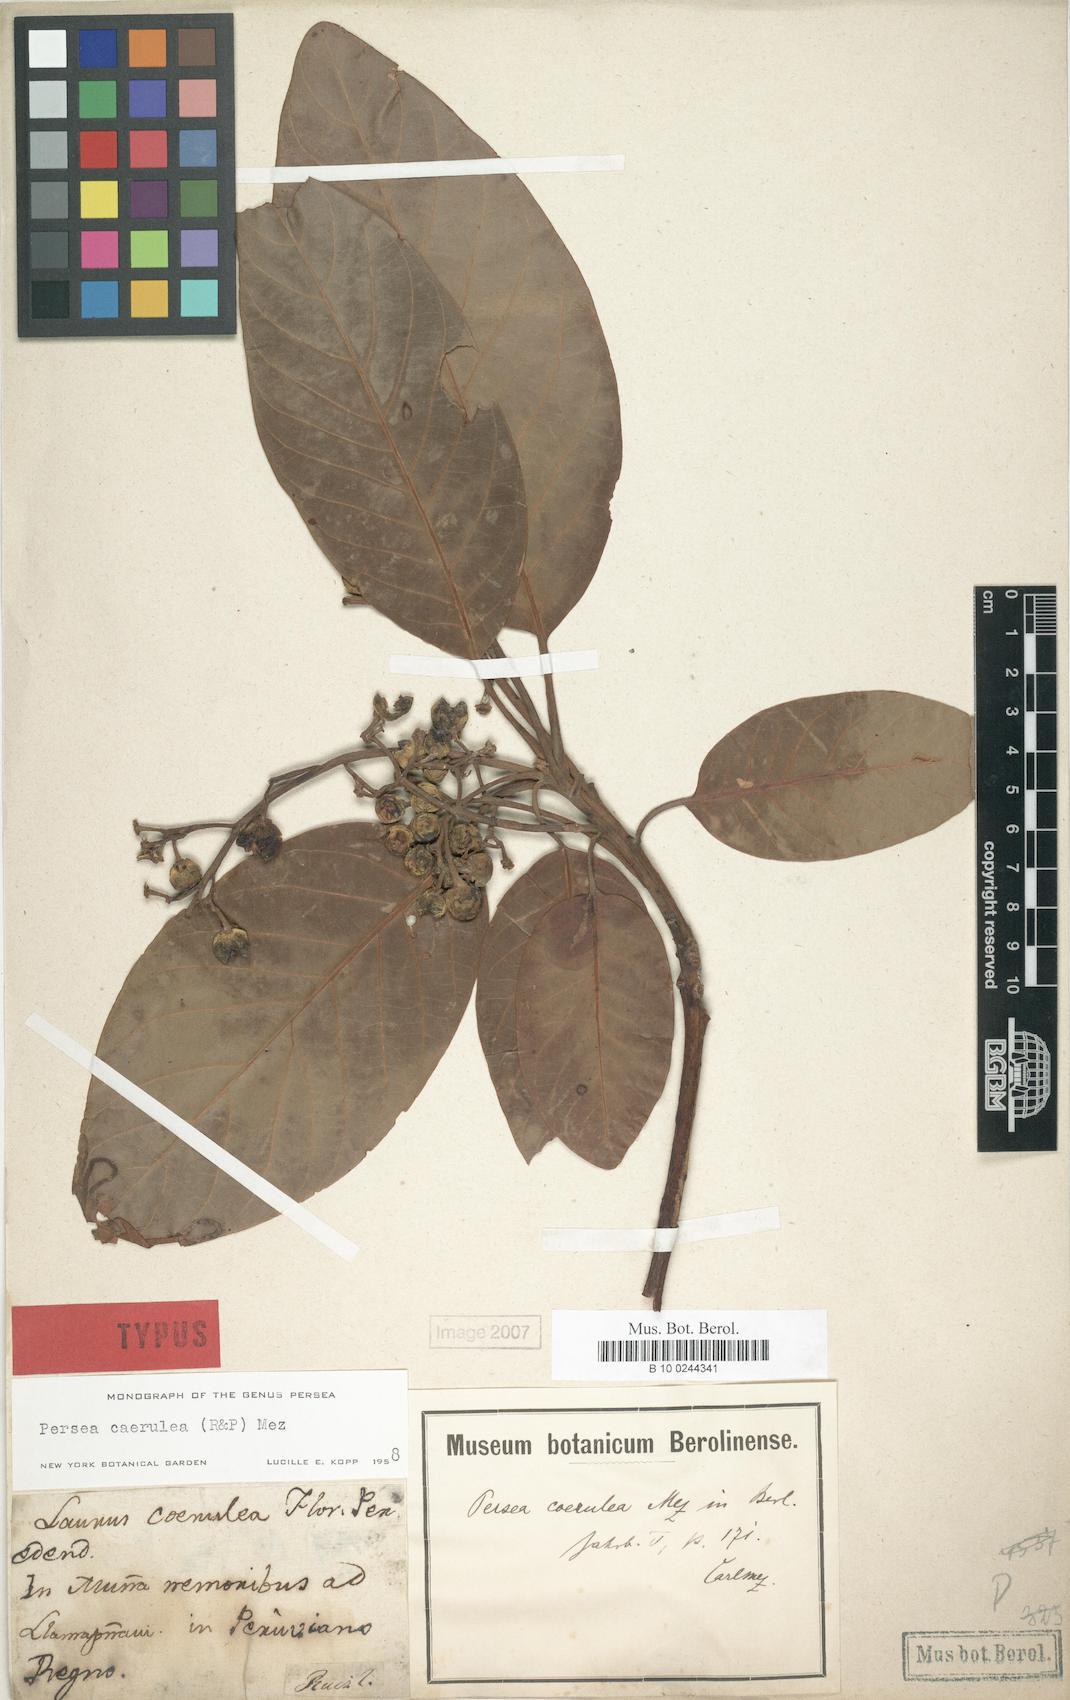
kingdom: Plantae
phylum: Tracheophyta
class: Magnoliopsida
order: Laurales
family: Lauraceae
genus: Persea
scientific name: Persea caerulea
